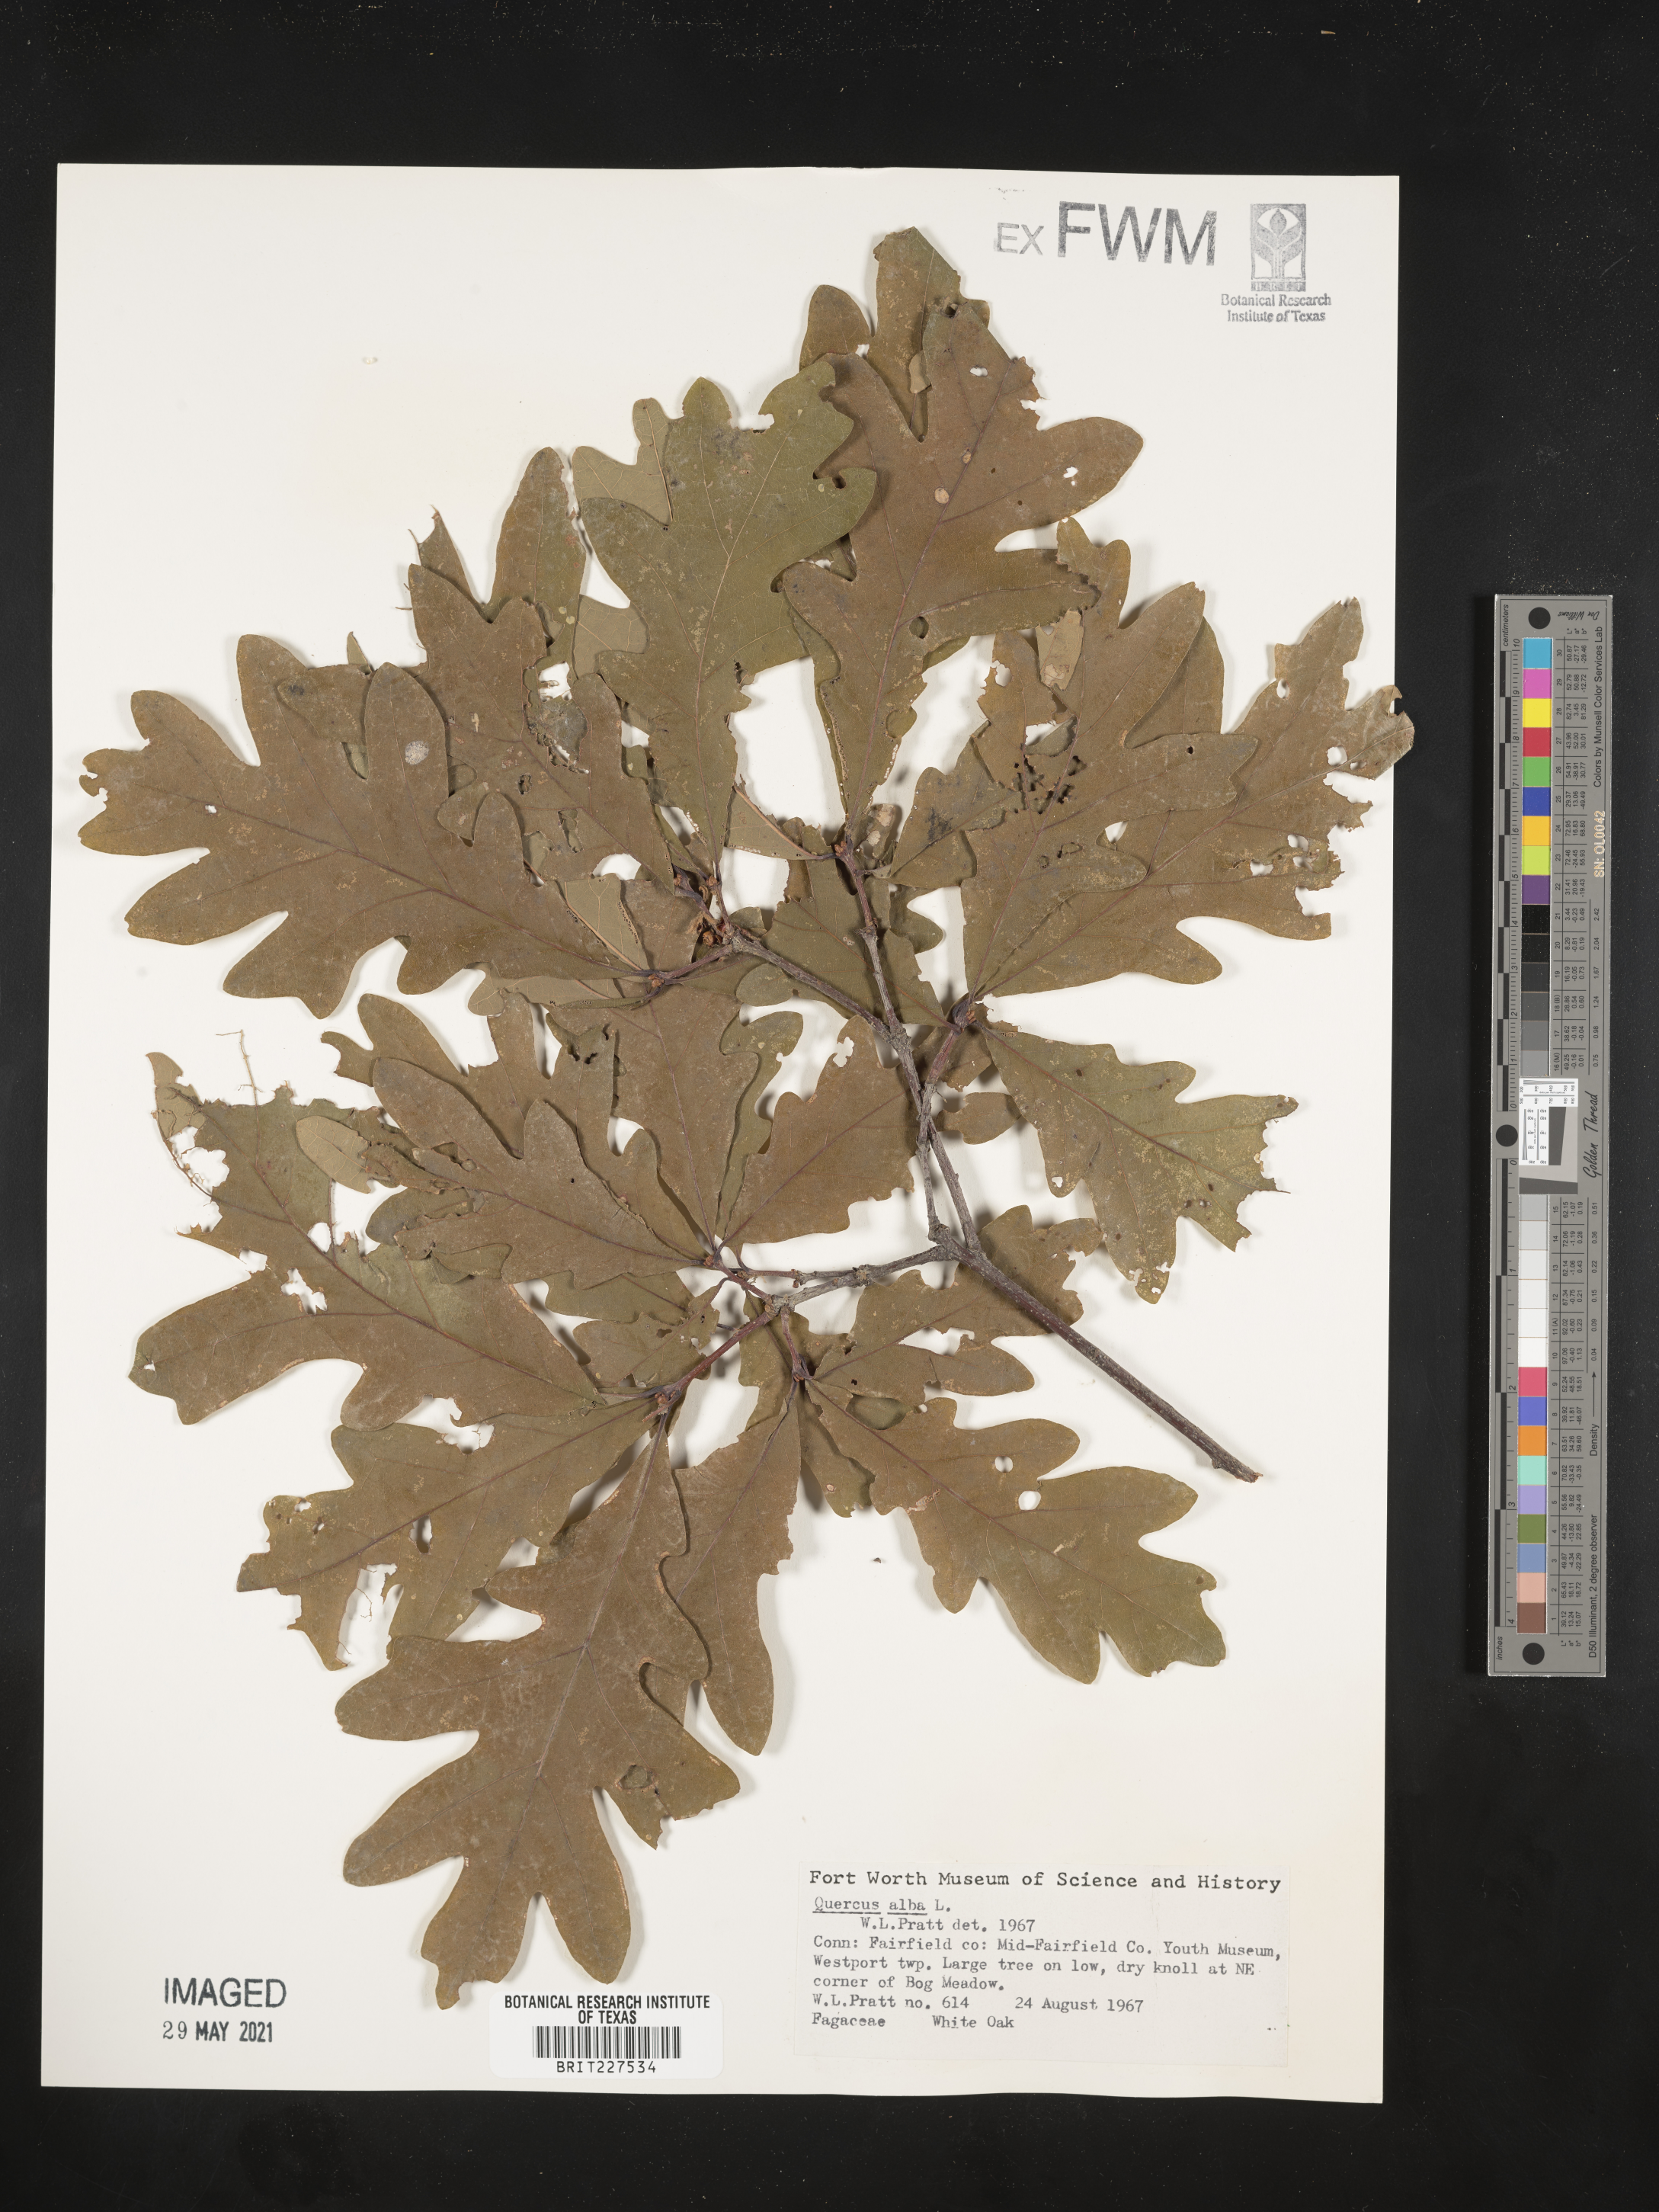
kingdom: Plantae
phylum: Tracheophyta
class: Magnoliopsida
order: Fagales
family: Fagaceae
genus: Quercus
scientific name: Quercus alba
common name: White oak
